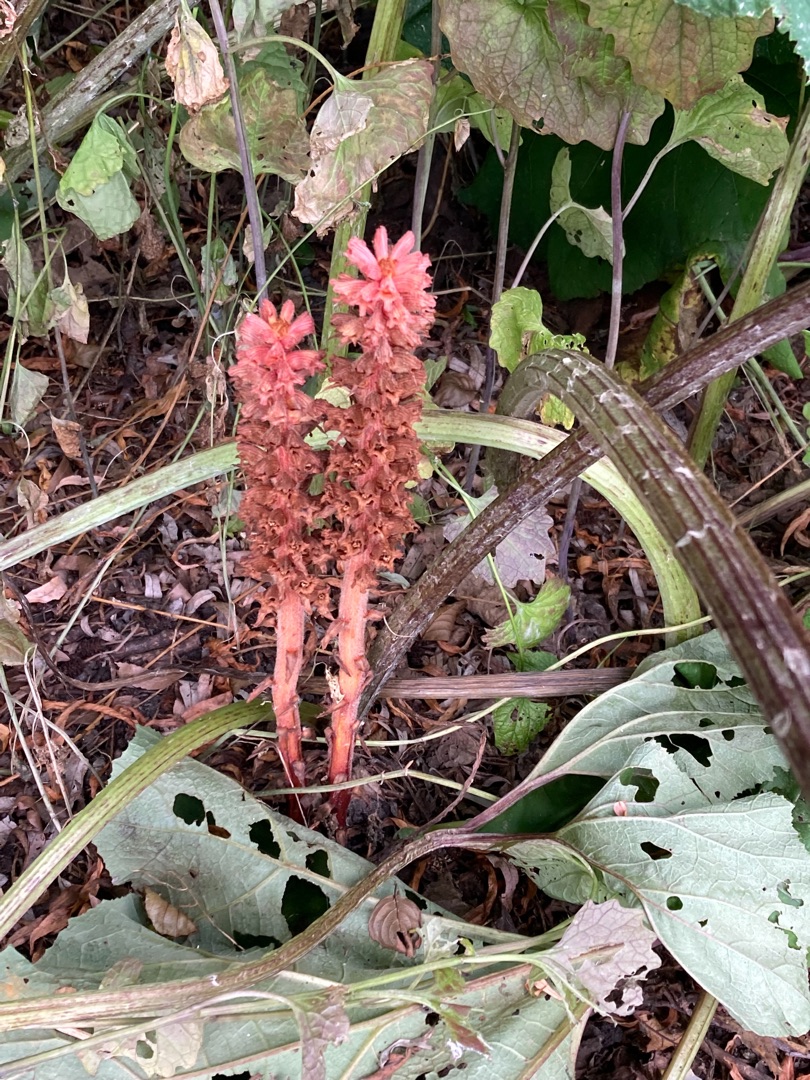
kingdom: Plantae
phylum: Tracheophyta
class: Magnoliopsida
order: Lamiales
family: Orobanchaceae
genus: Orobanche
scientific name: Orobanche flava
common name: Gul gyvelkvæler
